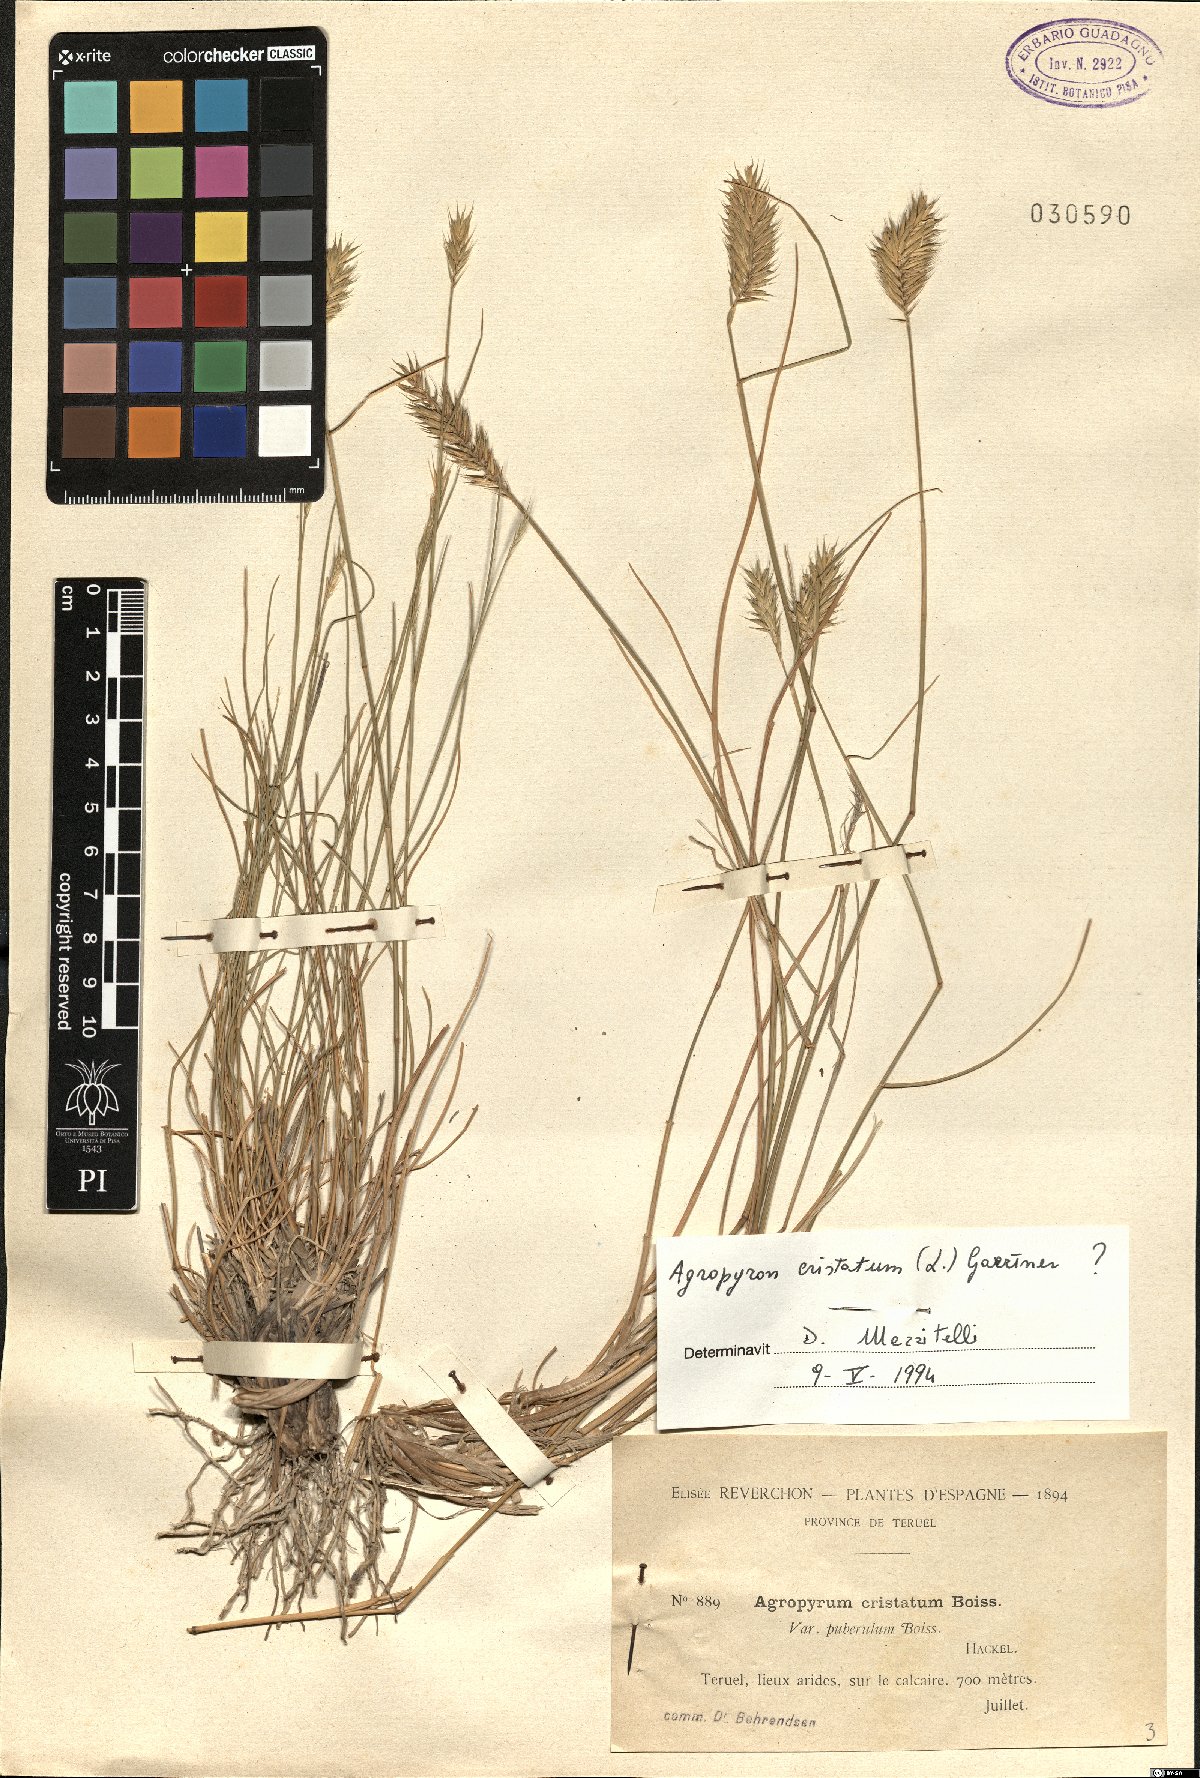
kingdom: Plantae
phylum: Tracheophyta
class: Liliopsida
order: Poales
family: Poaceae
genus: Agropyron
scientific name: Agropyron cristatum
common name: Crested wheatgrass
